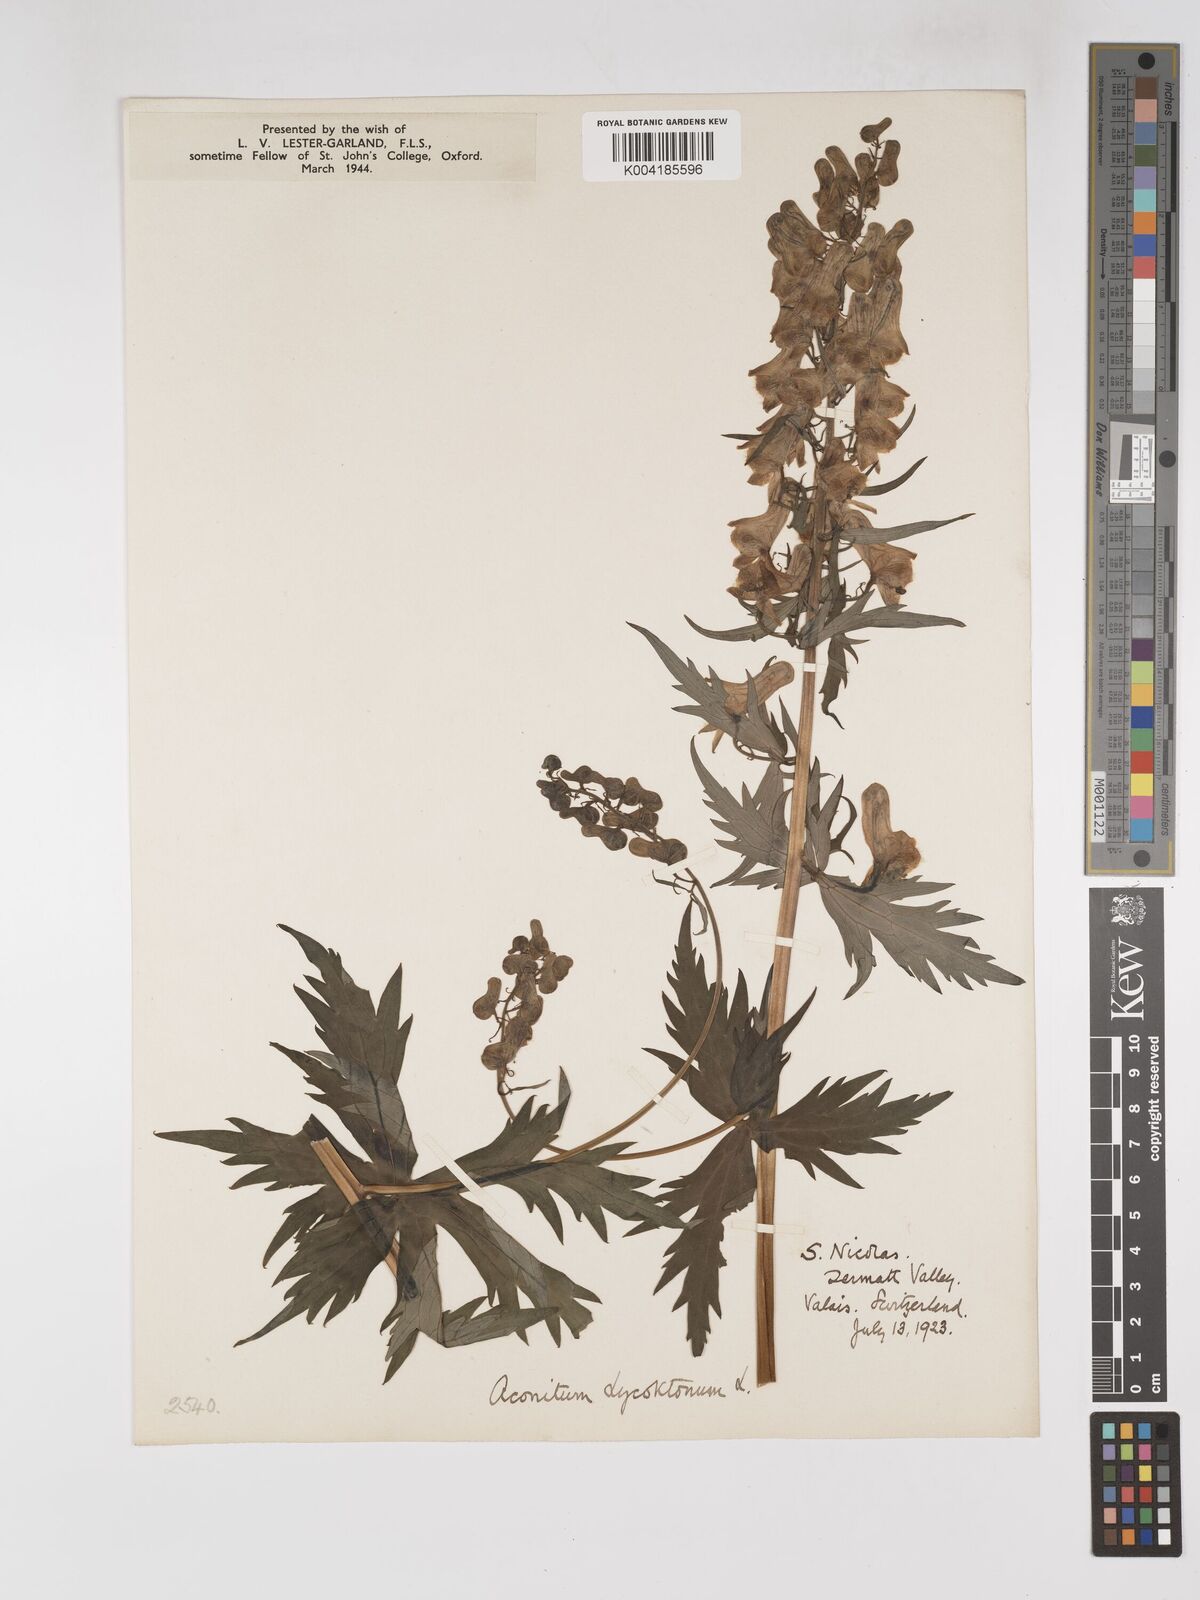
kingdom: Plantae
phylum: Tracheophyta
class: Magnoliopsida
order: Ranunculales
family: Ranunculaceae
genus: Aconitum
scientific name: Aconitum lycoctonum
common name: Wolf's-bane
